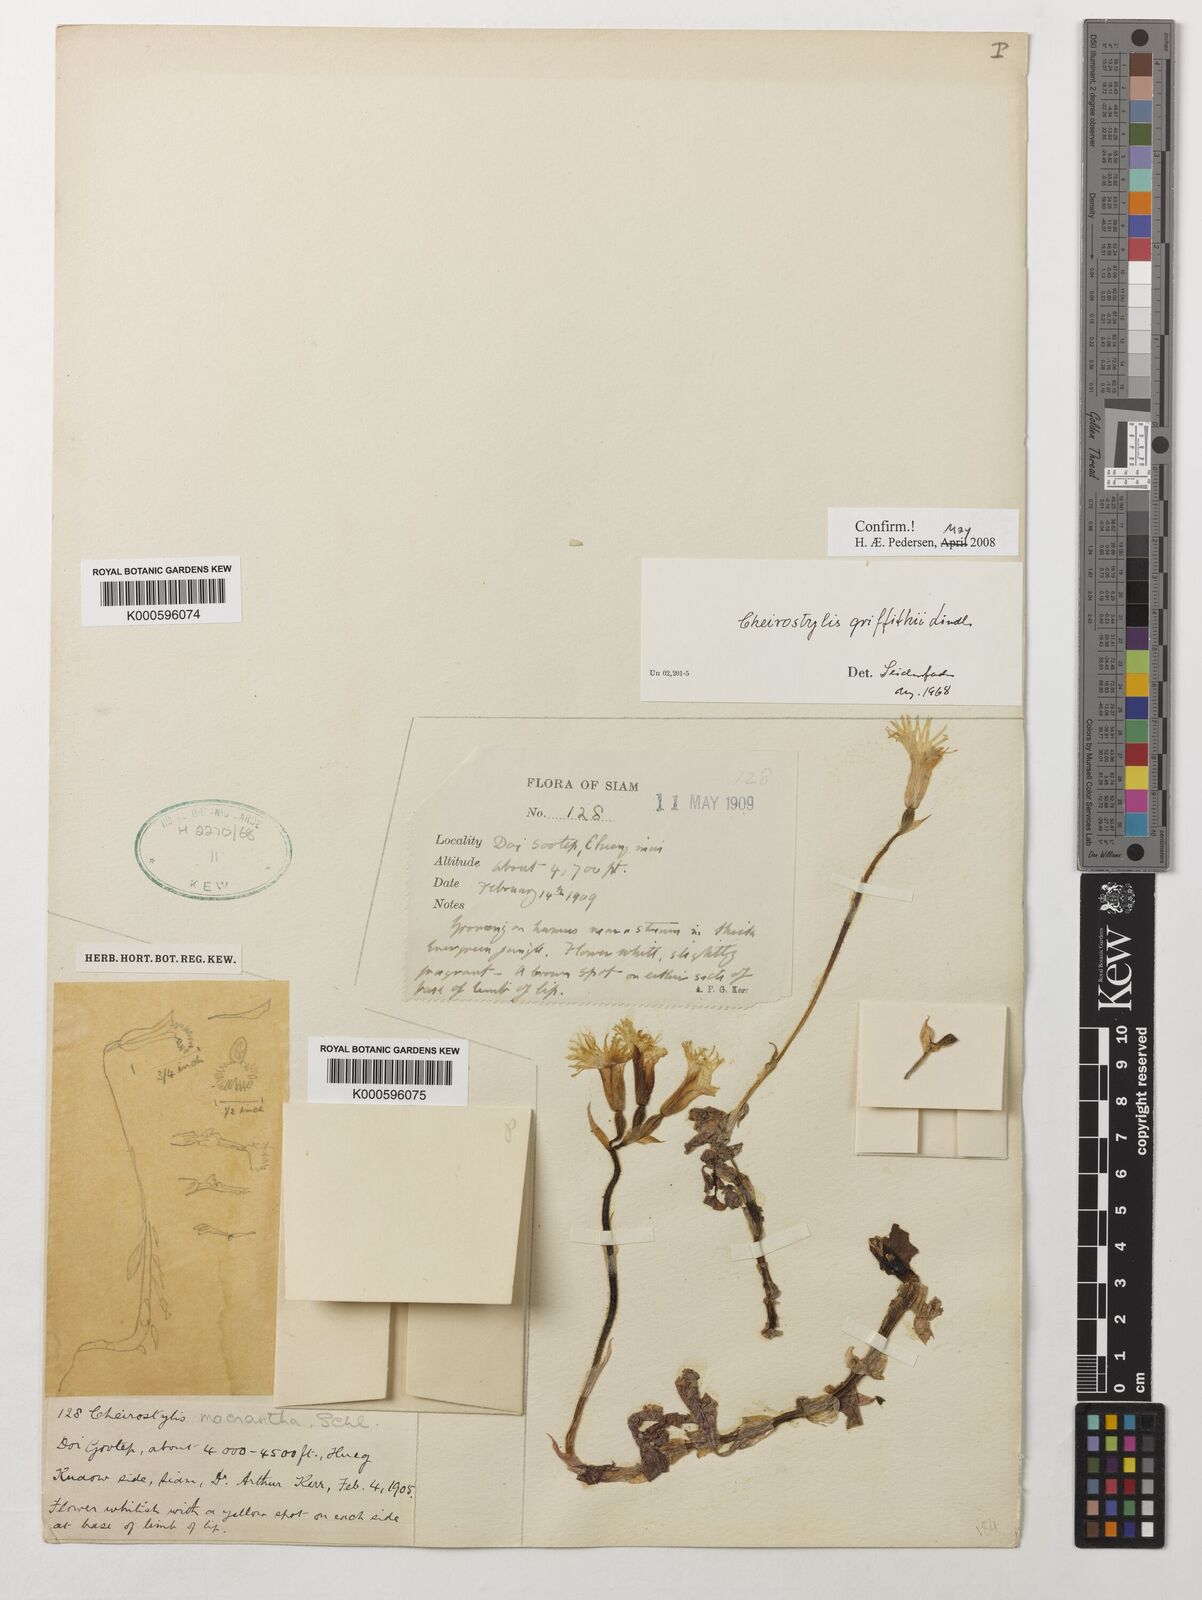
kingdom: Plantae
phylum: Tracheophyta
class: Liliopsida
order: Asparagales
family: Orchidaceae
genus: Cheirostylis
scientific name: Cheirostylis griffithii
